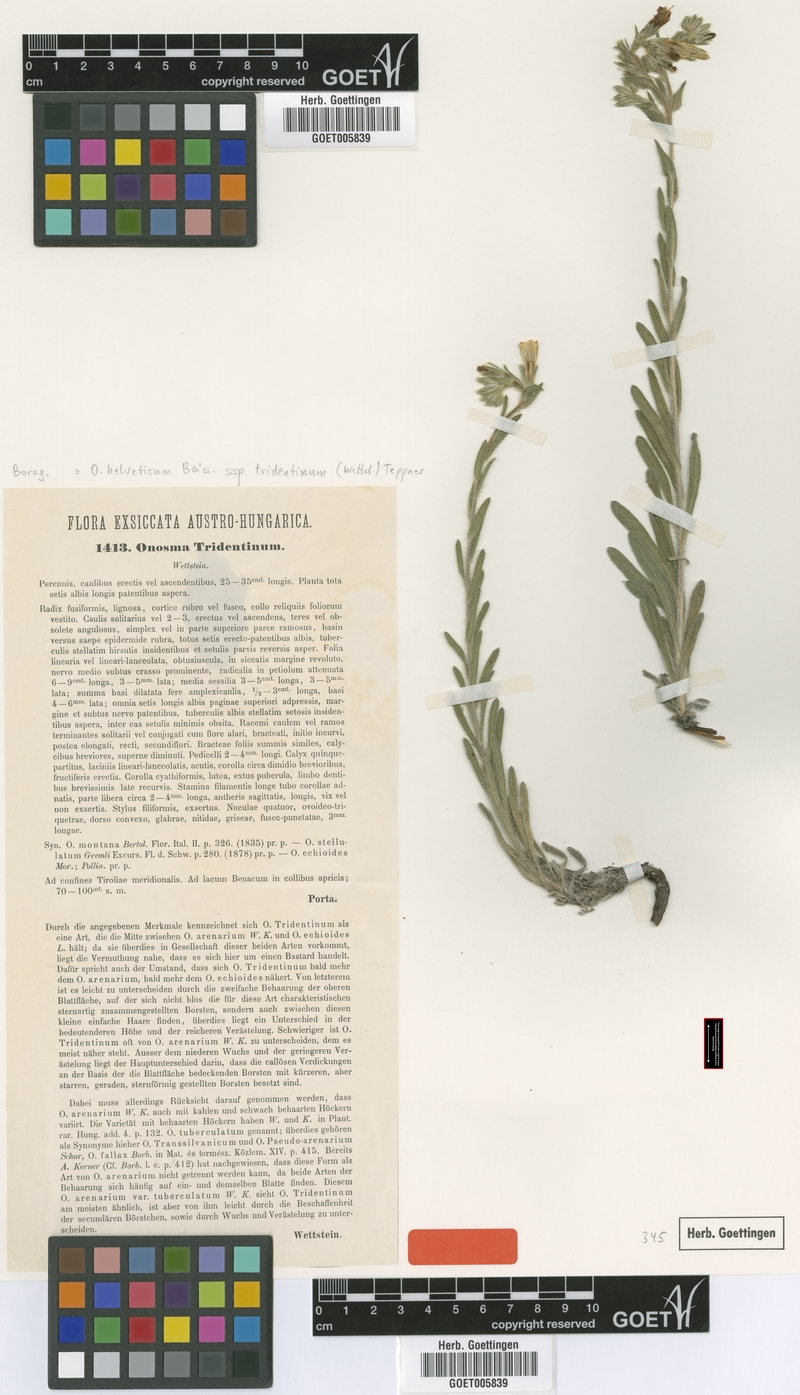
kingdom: Plantae
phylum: Tracheophyta
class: Magnoliopsida
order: Boraginales
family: Boraginaceae
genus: Onosma
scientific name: Onosma pseudoarenaria
